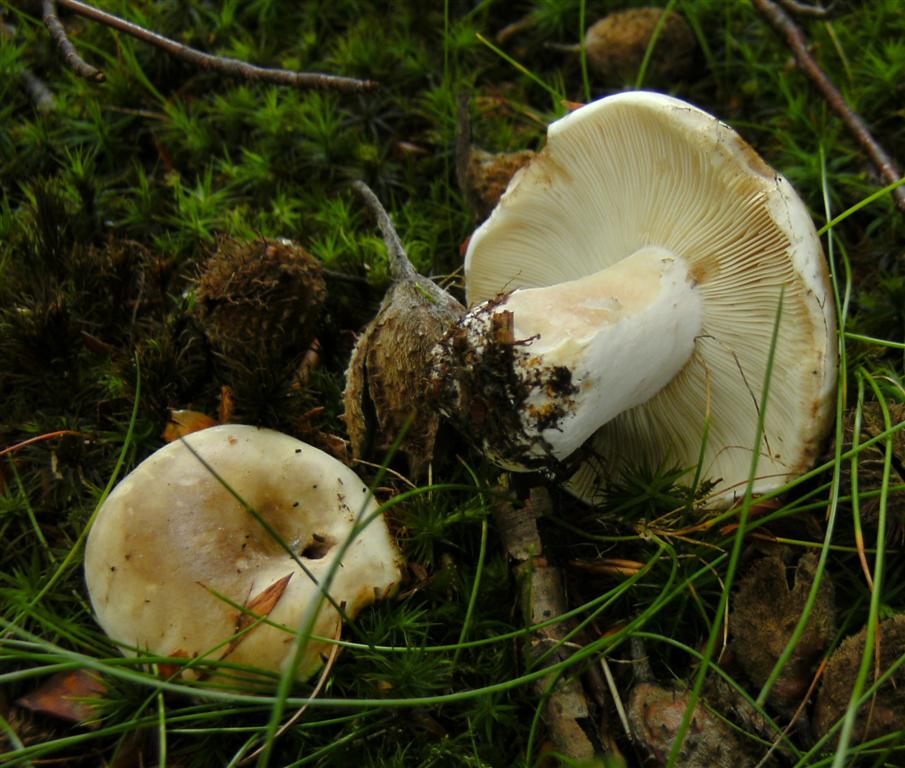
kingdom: Fungi
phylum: Basidiomycota
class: Agaricomycetes
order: Russulales
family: Russulaceae
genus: Russula
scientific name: Russula densifolia
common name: tætbladet skørhat
